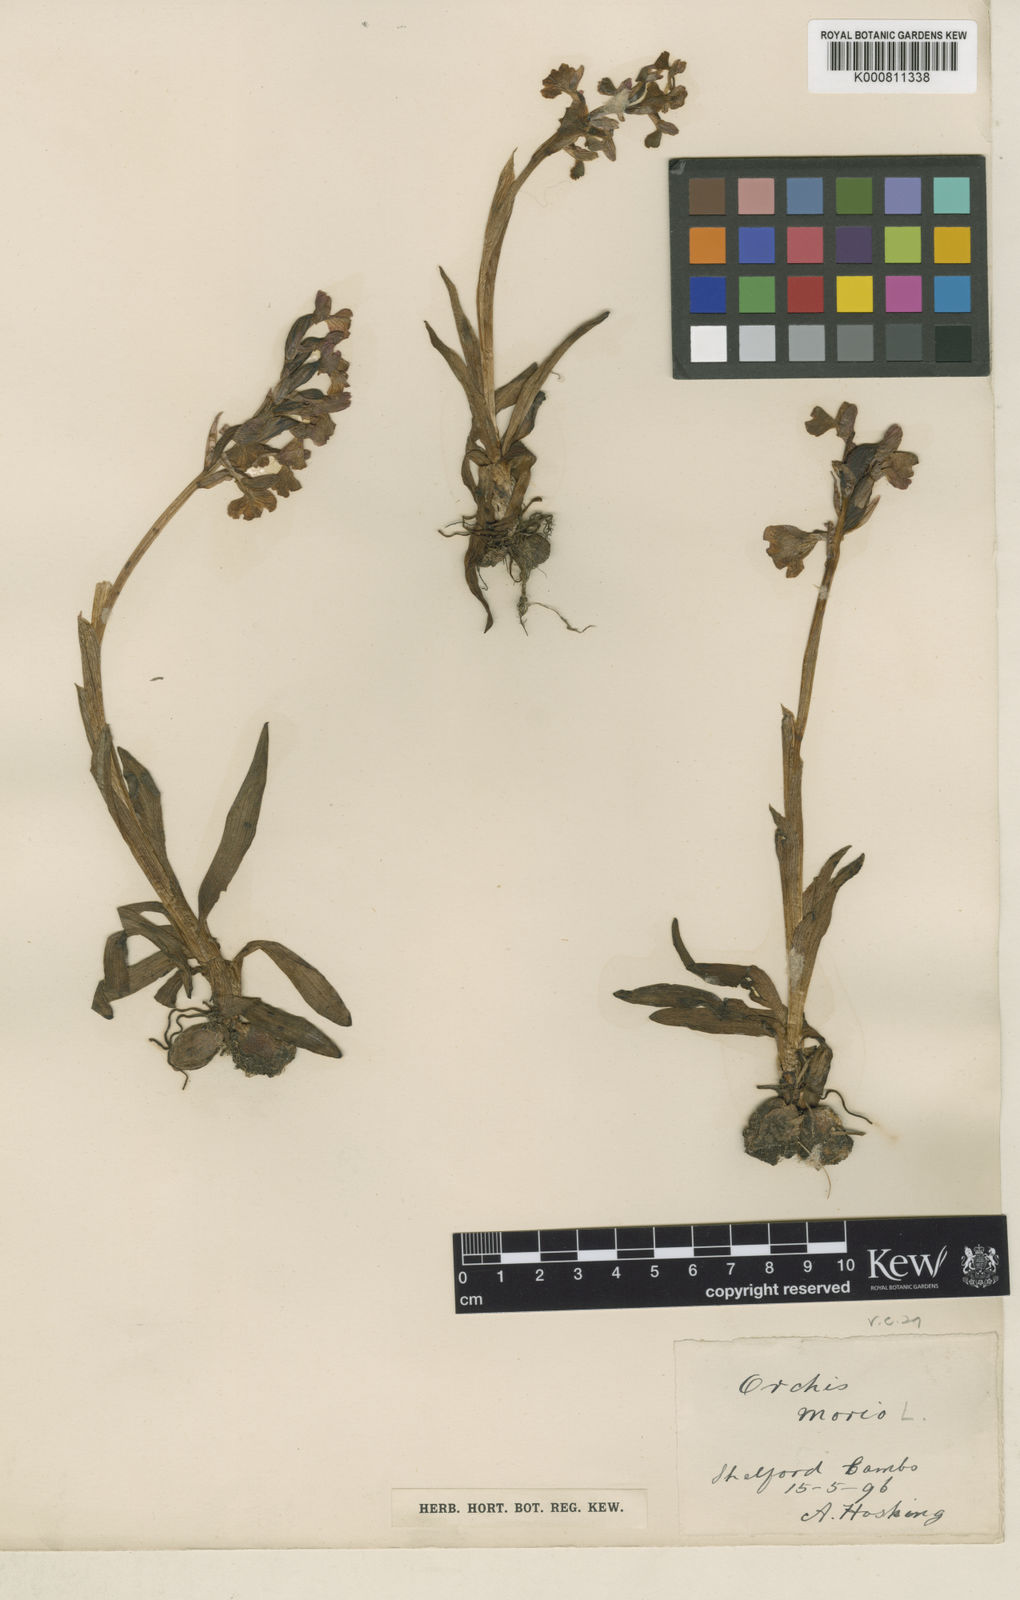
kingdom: Plantae
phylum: Tracheophyta
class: Liliopsida
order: Asparagales
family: Orchidaceae
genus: Anacamptis
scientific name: Anacamptis morio
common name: Green-winged orchid
